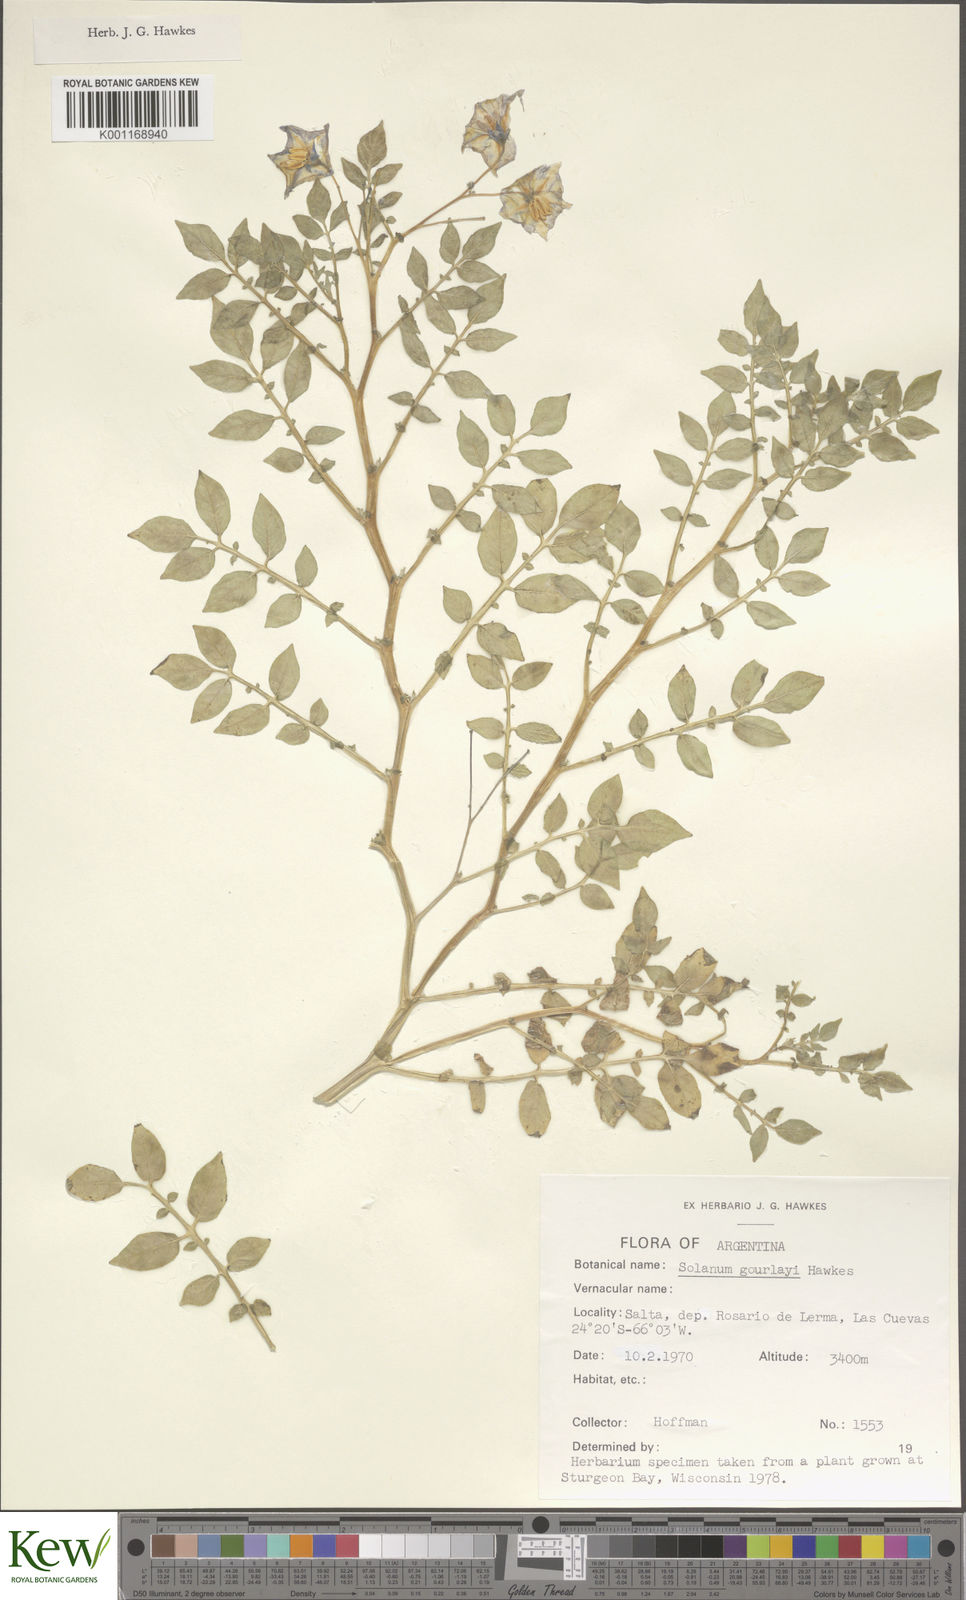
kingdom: Plantae
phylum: Tracheophyta
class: Magnoliopsida
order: Solanales
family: Solanaceae
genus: Solanum
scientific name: Solanum brevicaule
